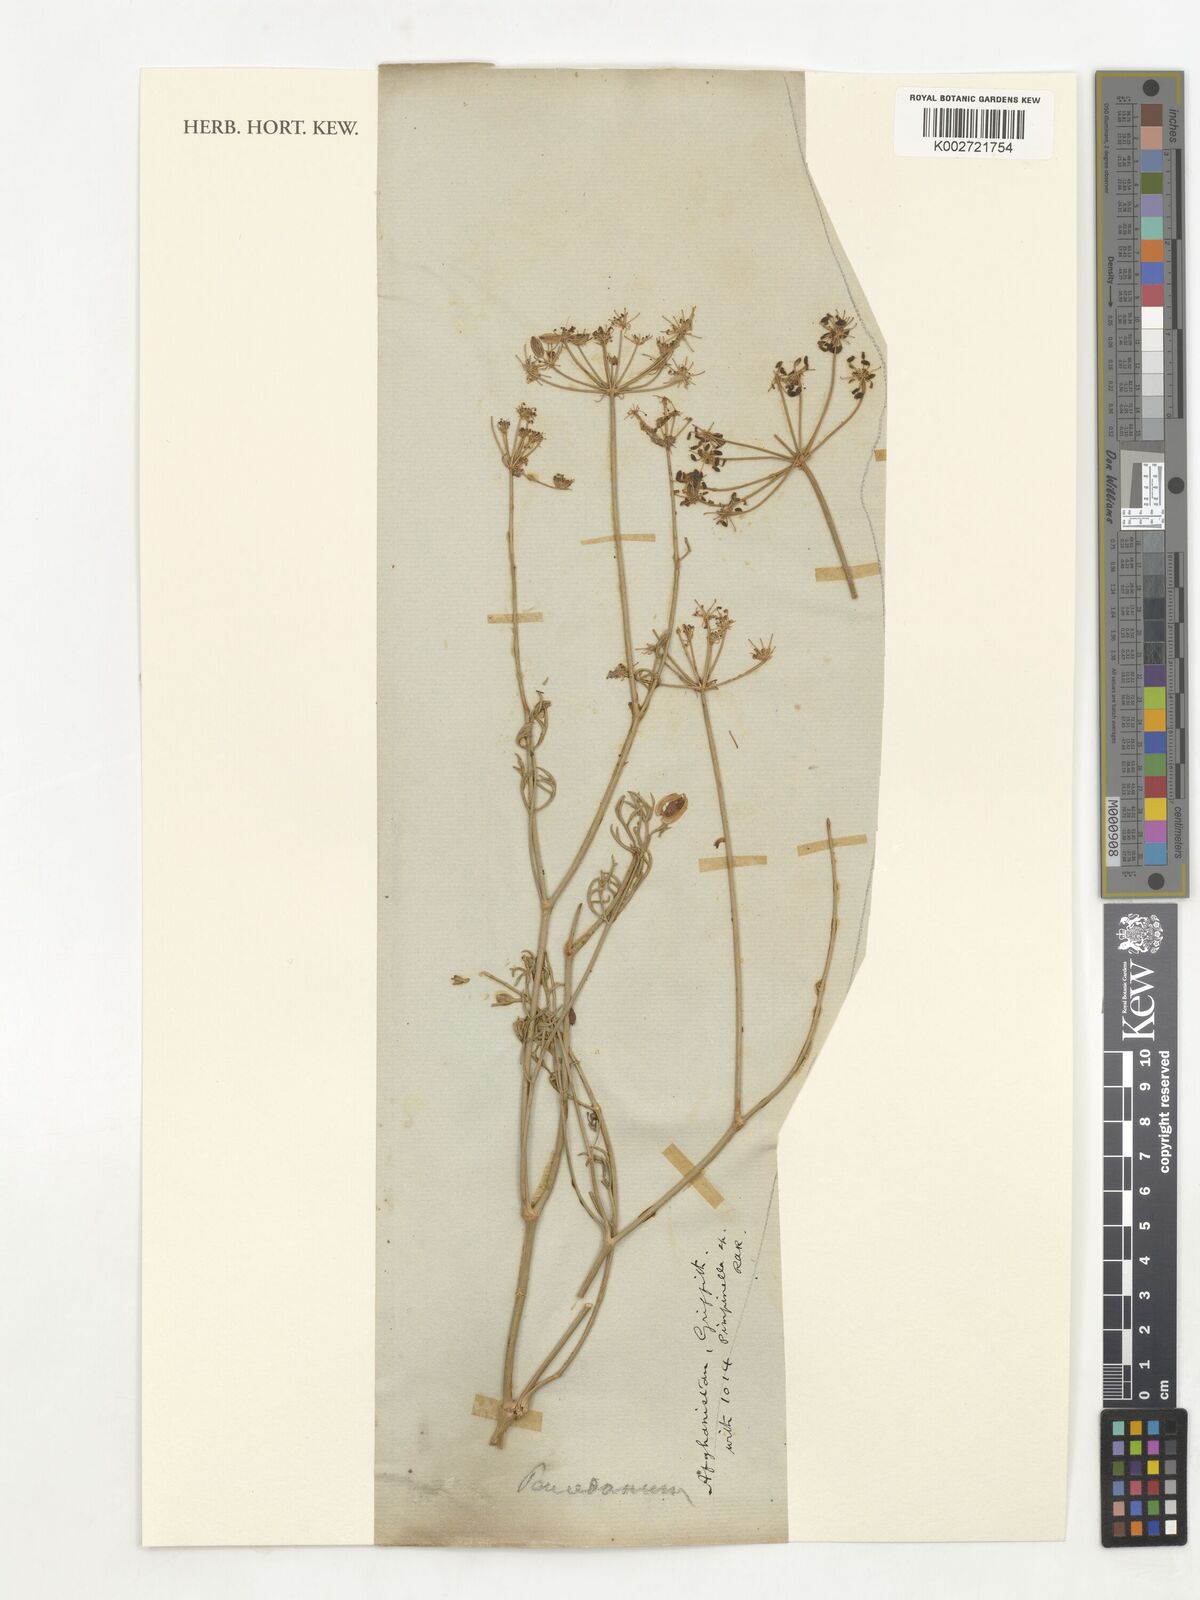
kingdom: Plantae
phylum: Tracheophyta
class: Magnoliopsida
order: Apiales
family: Apiaceae
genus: Peucedanum
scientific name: Peucedanum
